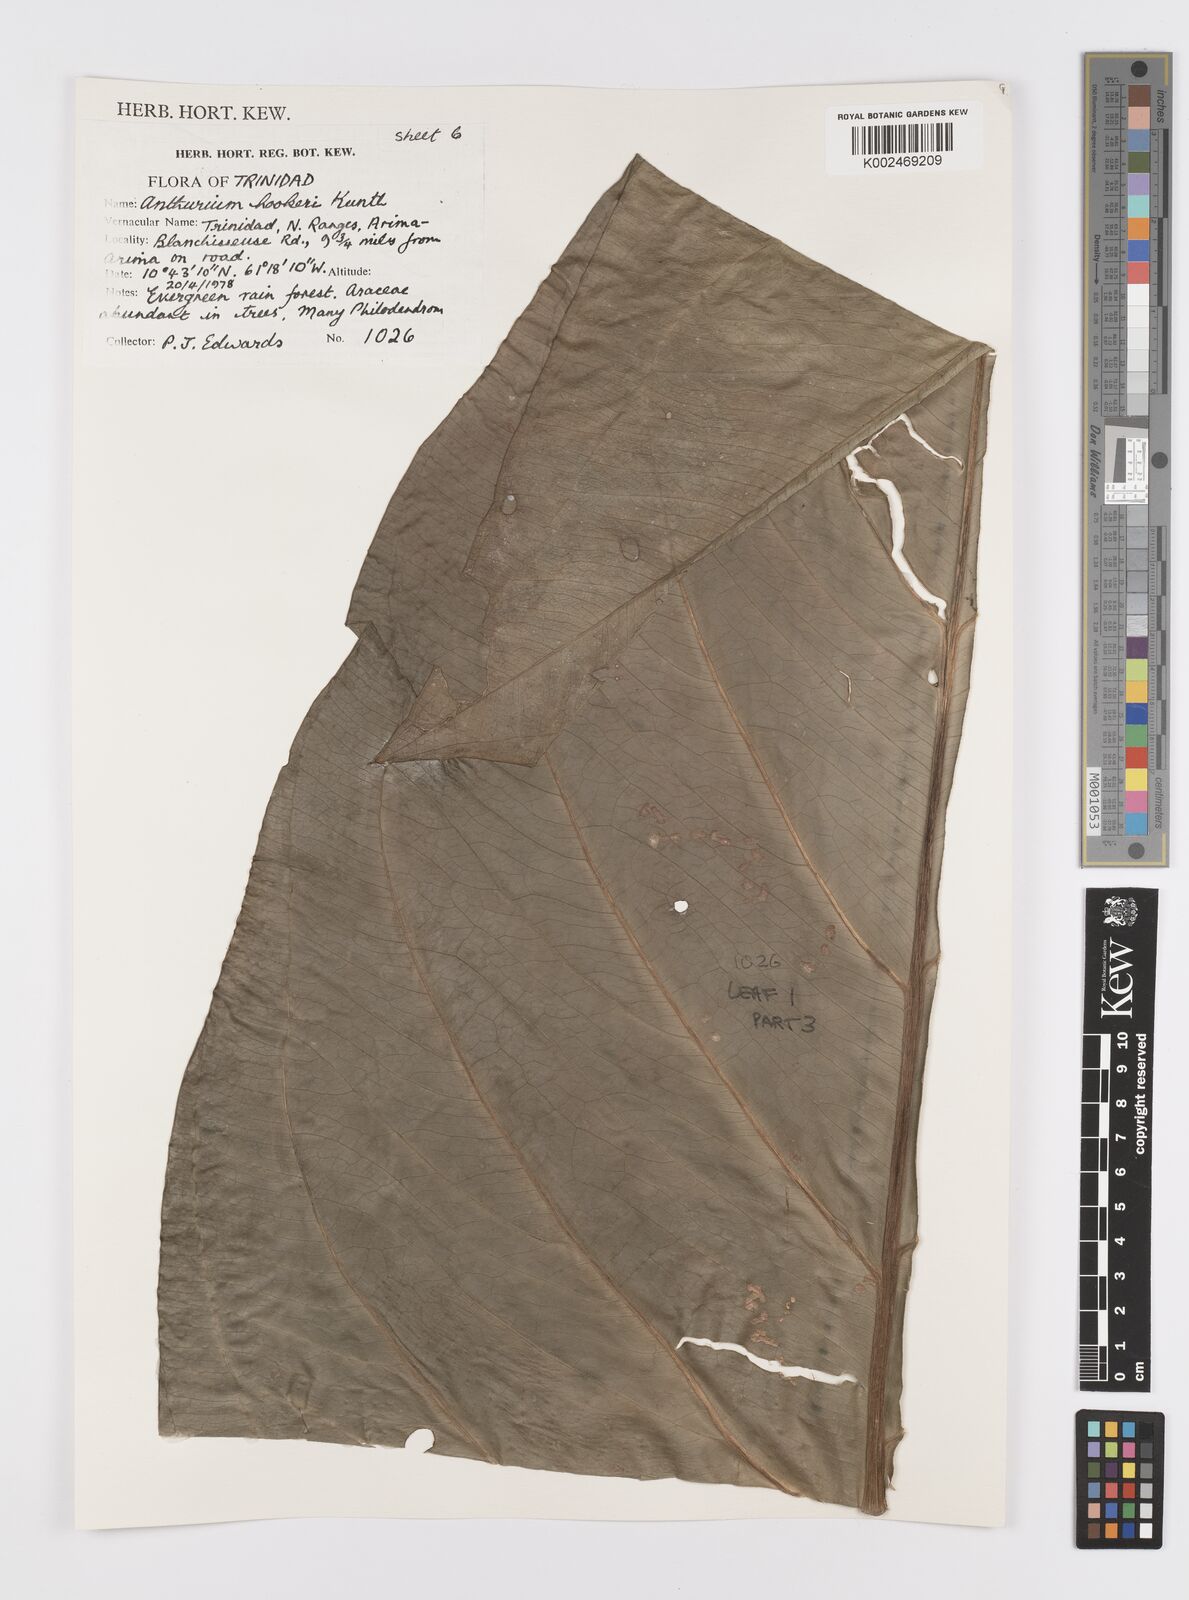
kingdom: Plantae
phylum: Tracheophyta
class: Liliopsida
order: Alismatales
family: Araceae
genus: Anthurium
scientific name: Anthurium hookeri
